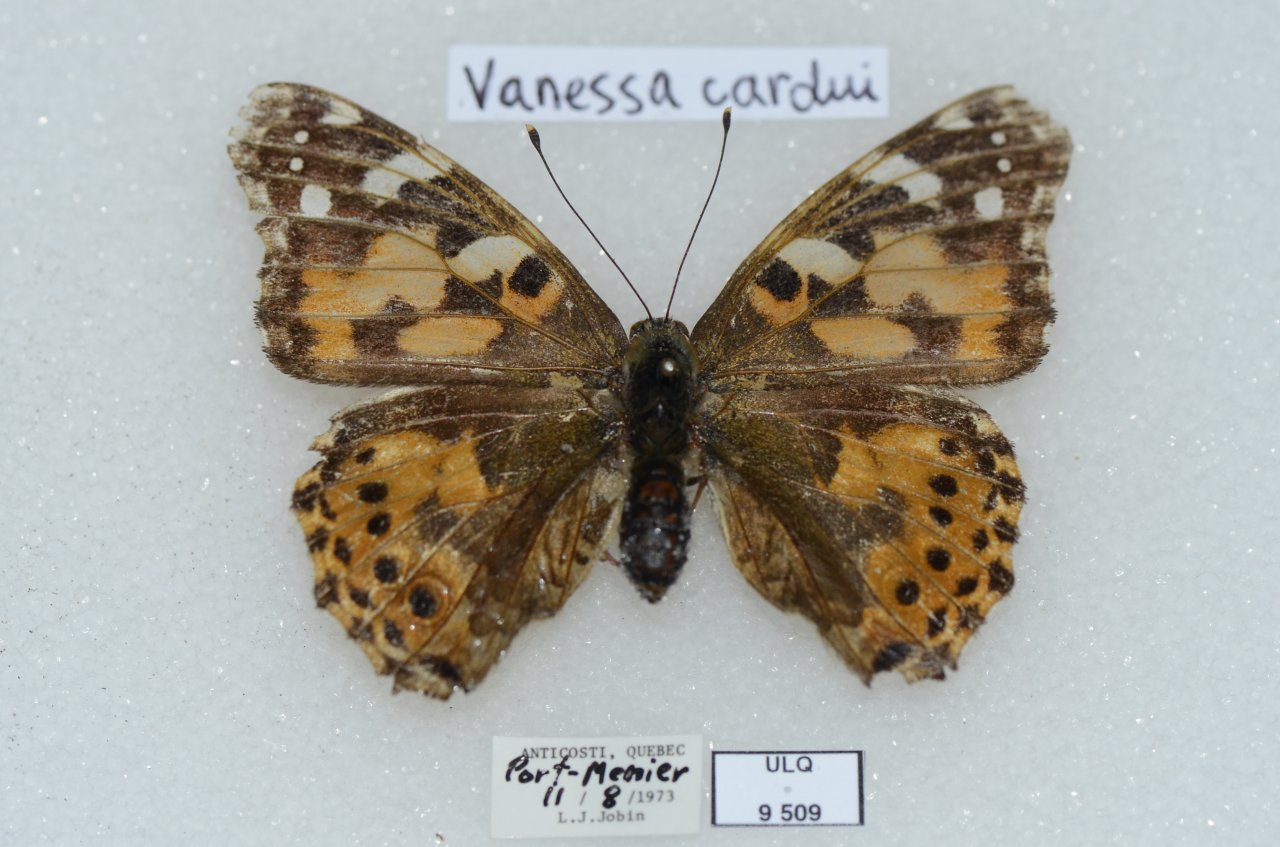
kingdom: Animalia
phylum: Arthropoda
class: Insecta
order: Lepidoptera
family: Nymphalidae
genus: Vanessa
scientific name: Vanessa cardui
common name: Painted Lady
